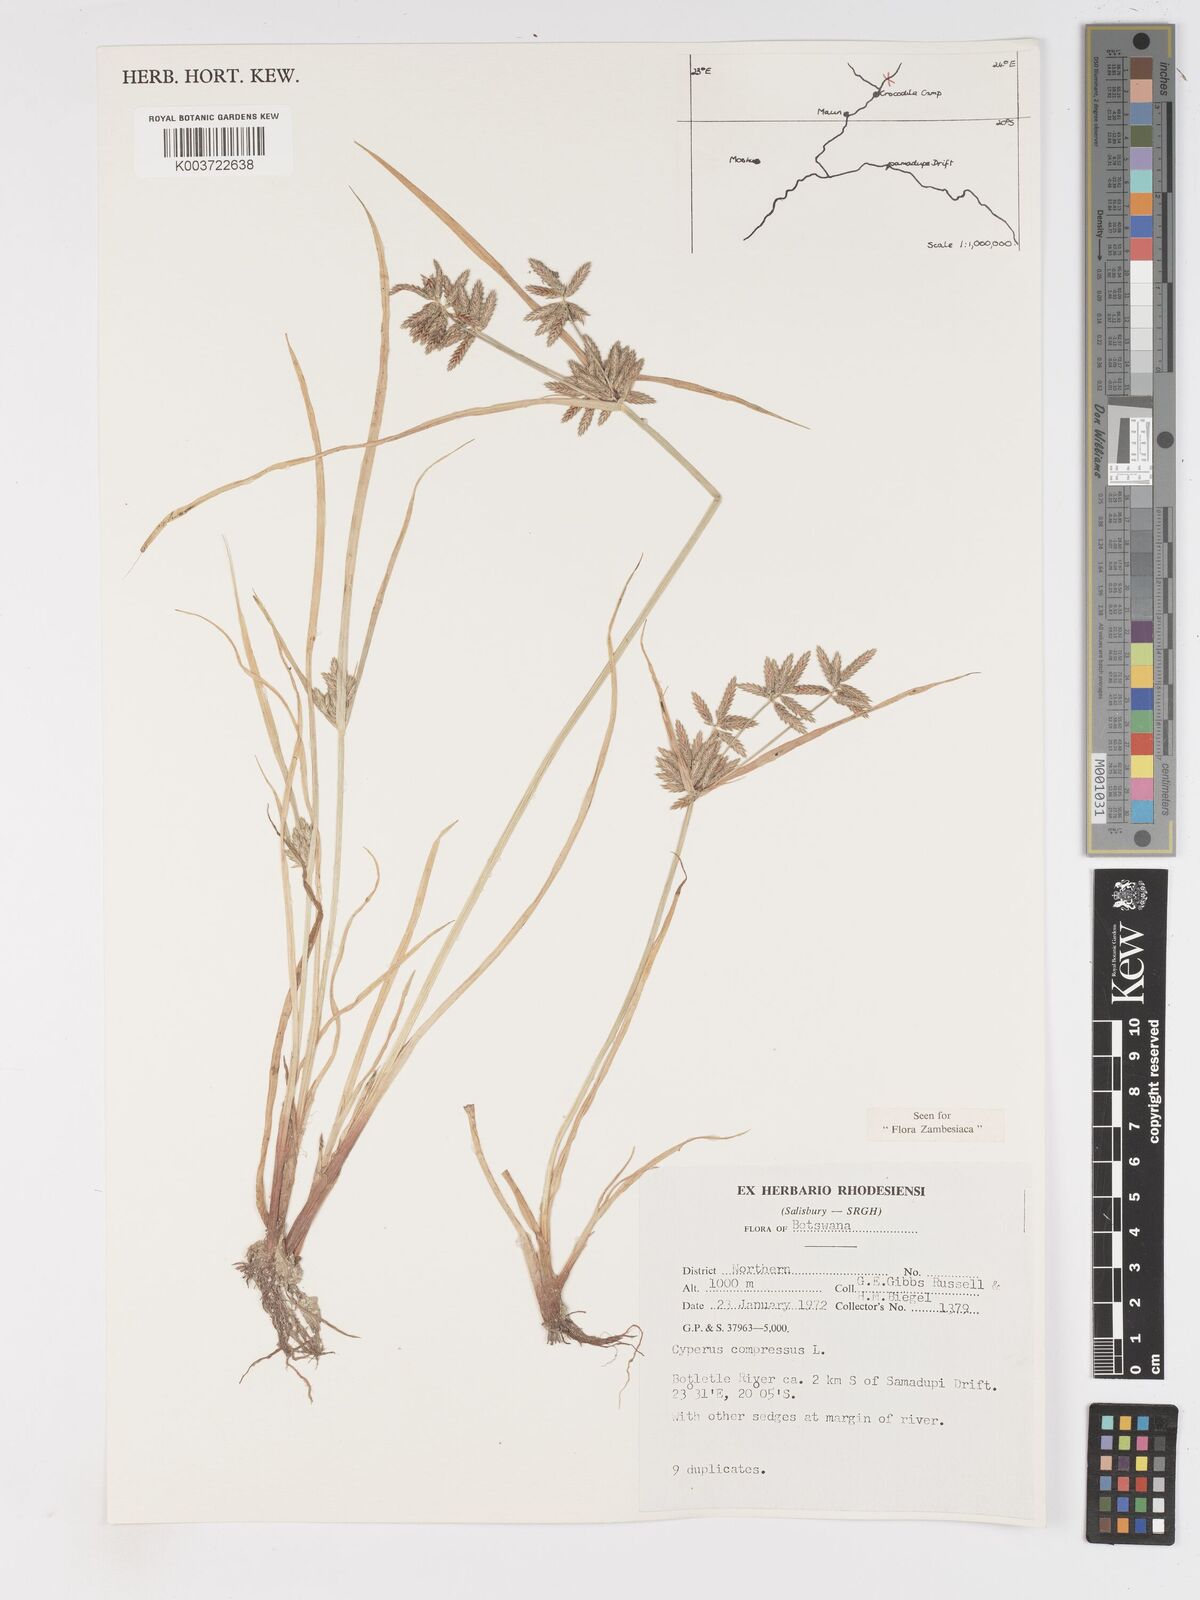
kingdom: Plantae
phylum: Tracheophyta
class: Liliopsida
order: Poales
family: Cyperaceae
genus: Cyperus
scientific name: Cyperus compressus
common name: Poorland flatsedge
